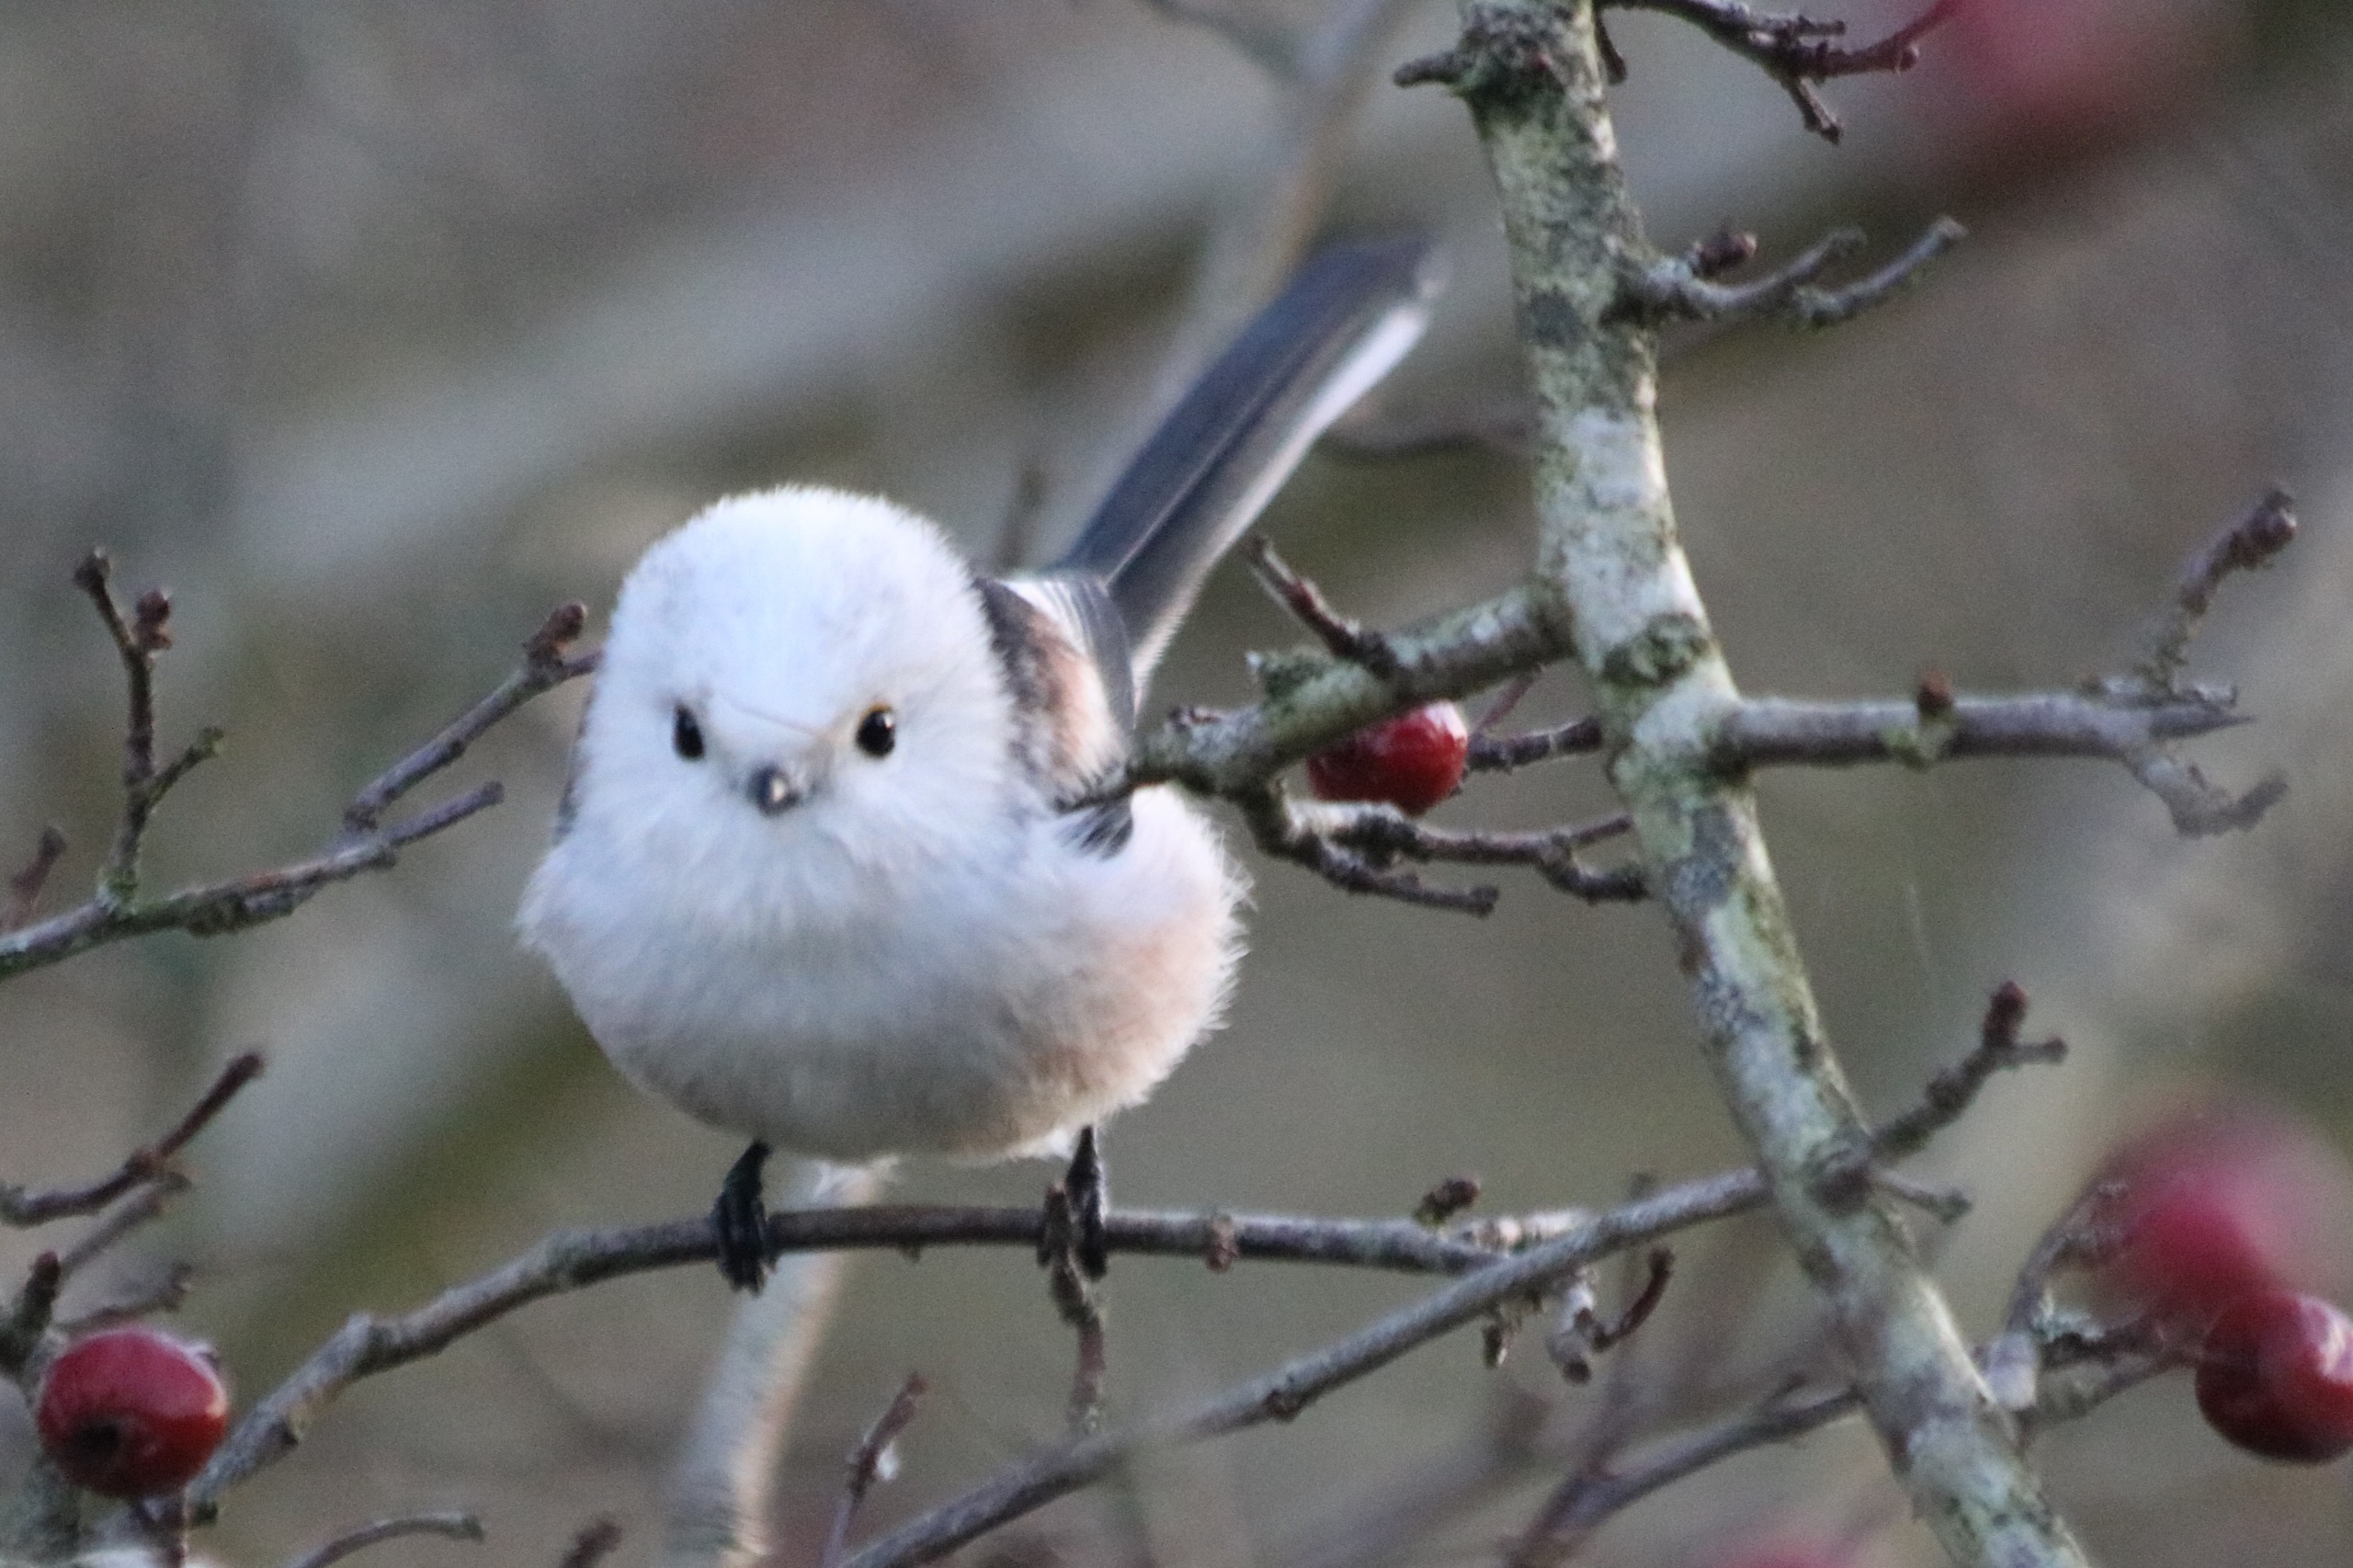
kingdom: Animalia
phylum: Chordata
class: Aves
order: Passeriformes
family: Aegithalidae
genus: Aegithalos
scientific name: Aegithalos caudatus
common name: Halemejse
